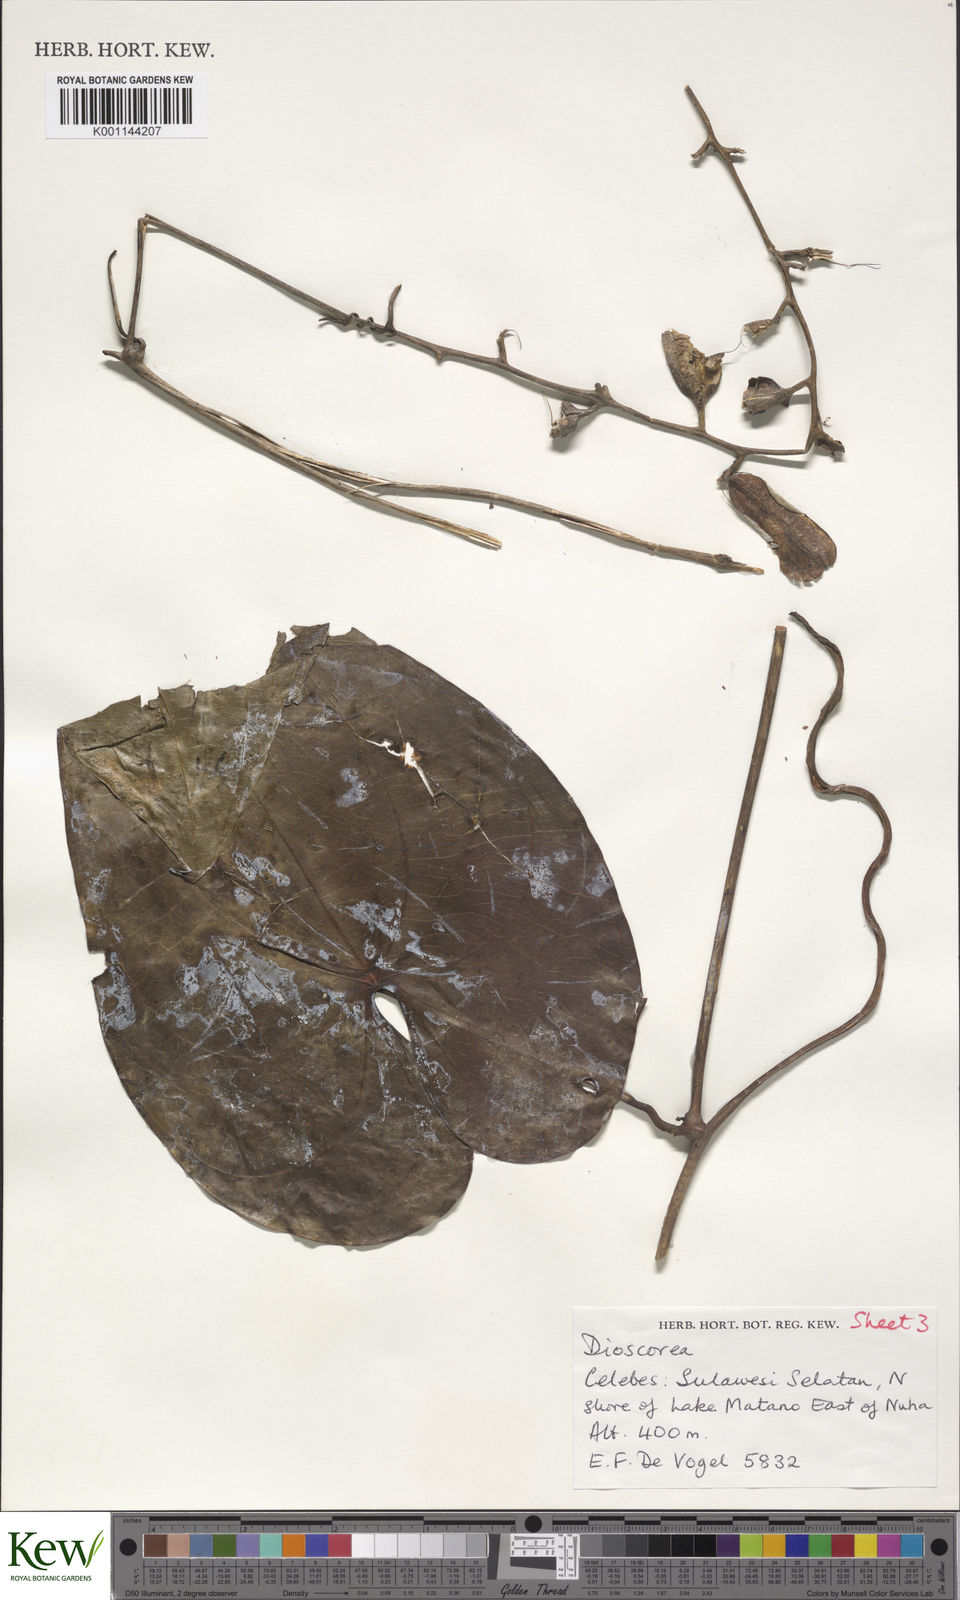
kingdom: Plantae
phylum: Tracheophyta
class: Liliopsida
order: Dioscoreales
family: Dioscoreaceae
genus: Dioscorea
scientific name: Dioscorea keduensis
